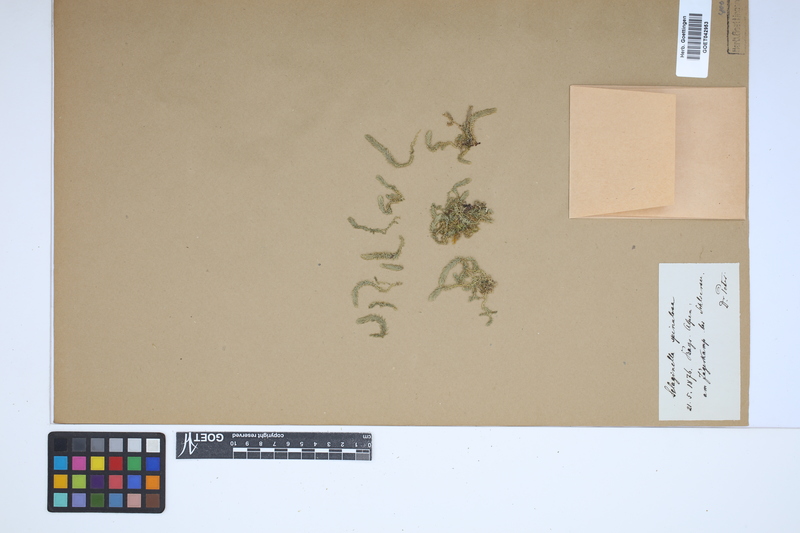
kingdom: Plantae
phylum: Tracheophyta
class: Lycopodiopsida
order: Selaginellales
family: Selaginellaceae
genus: Selaginella
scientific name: Selaginella selaginoides
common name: Prickly mountain-moss
